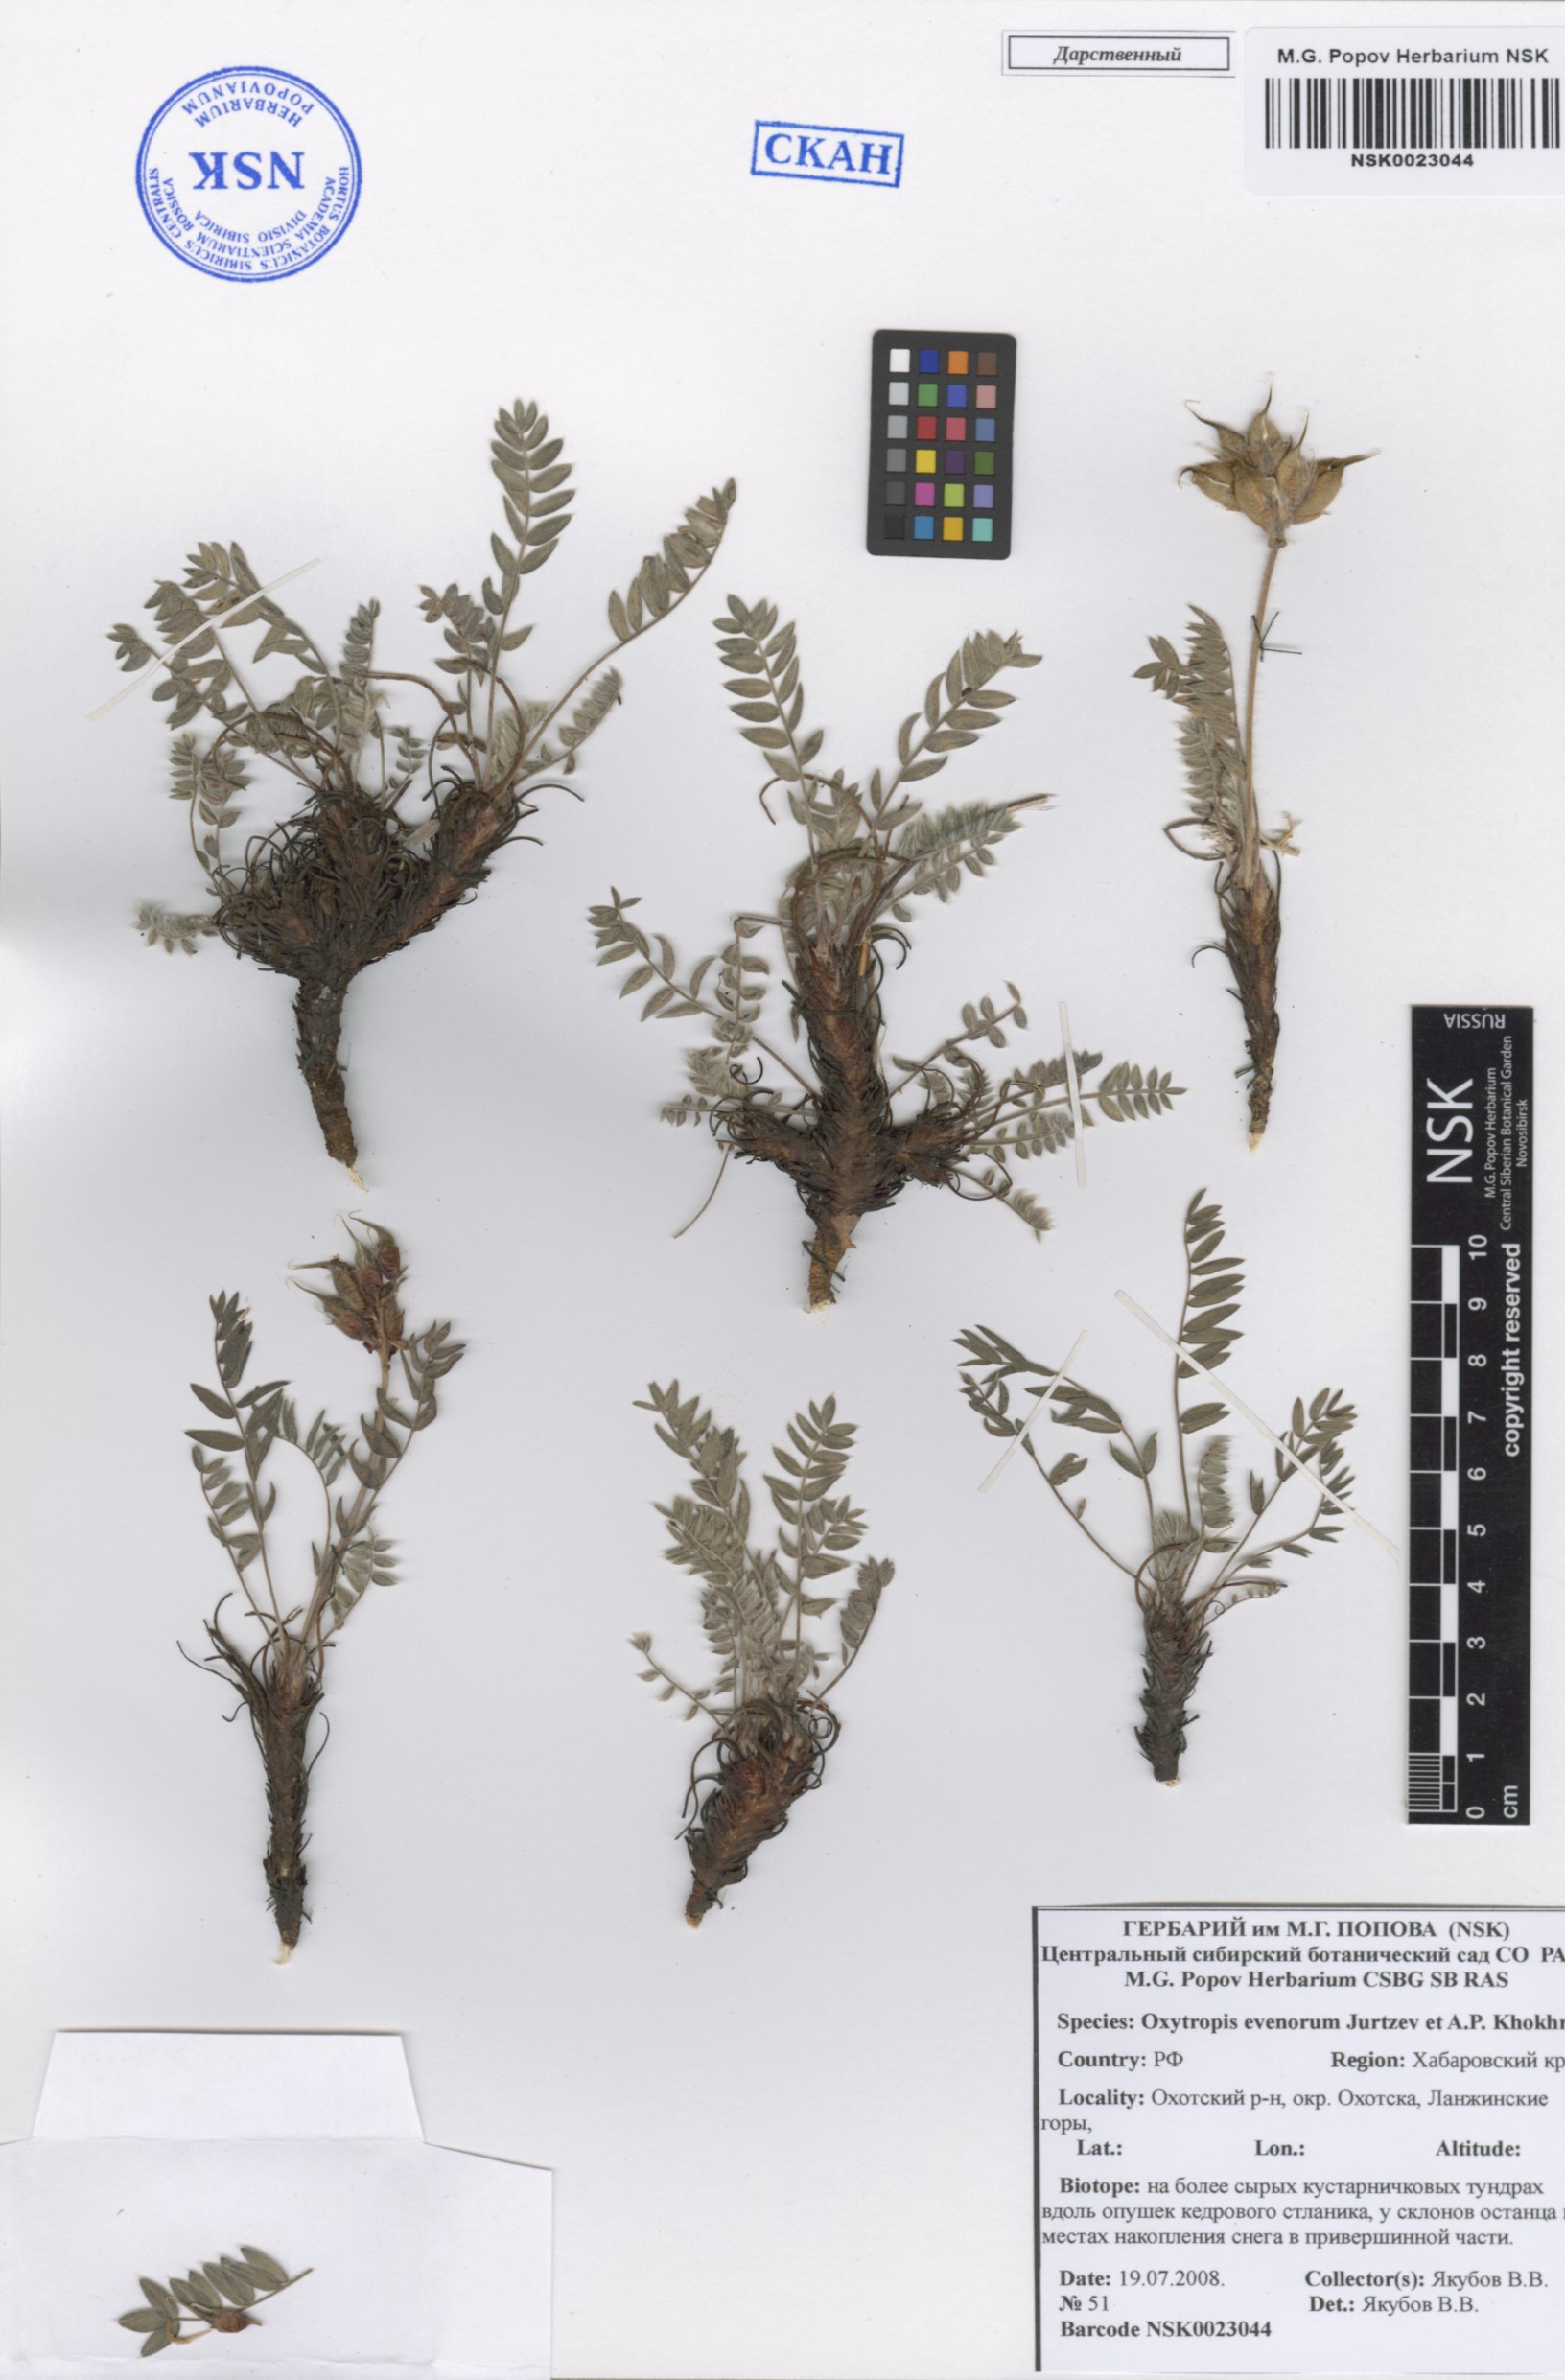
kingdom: Plantae
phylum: Tracheophyta
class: Magnoliopsida
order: Fabales
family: Fabaceae
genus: Oxytropis
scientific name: Oxytropis evenorum
